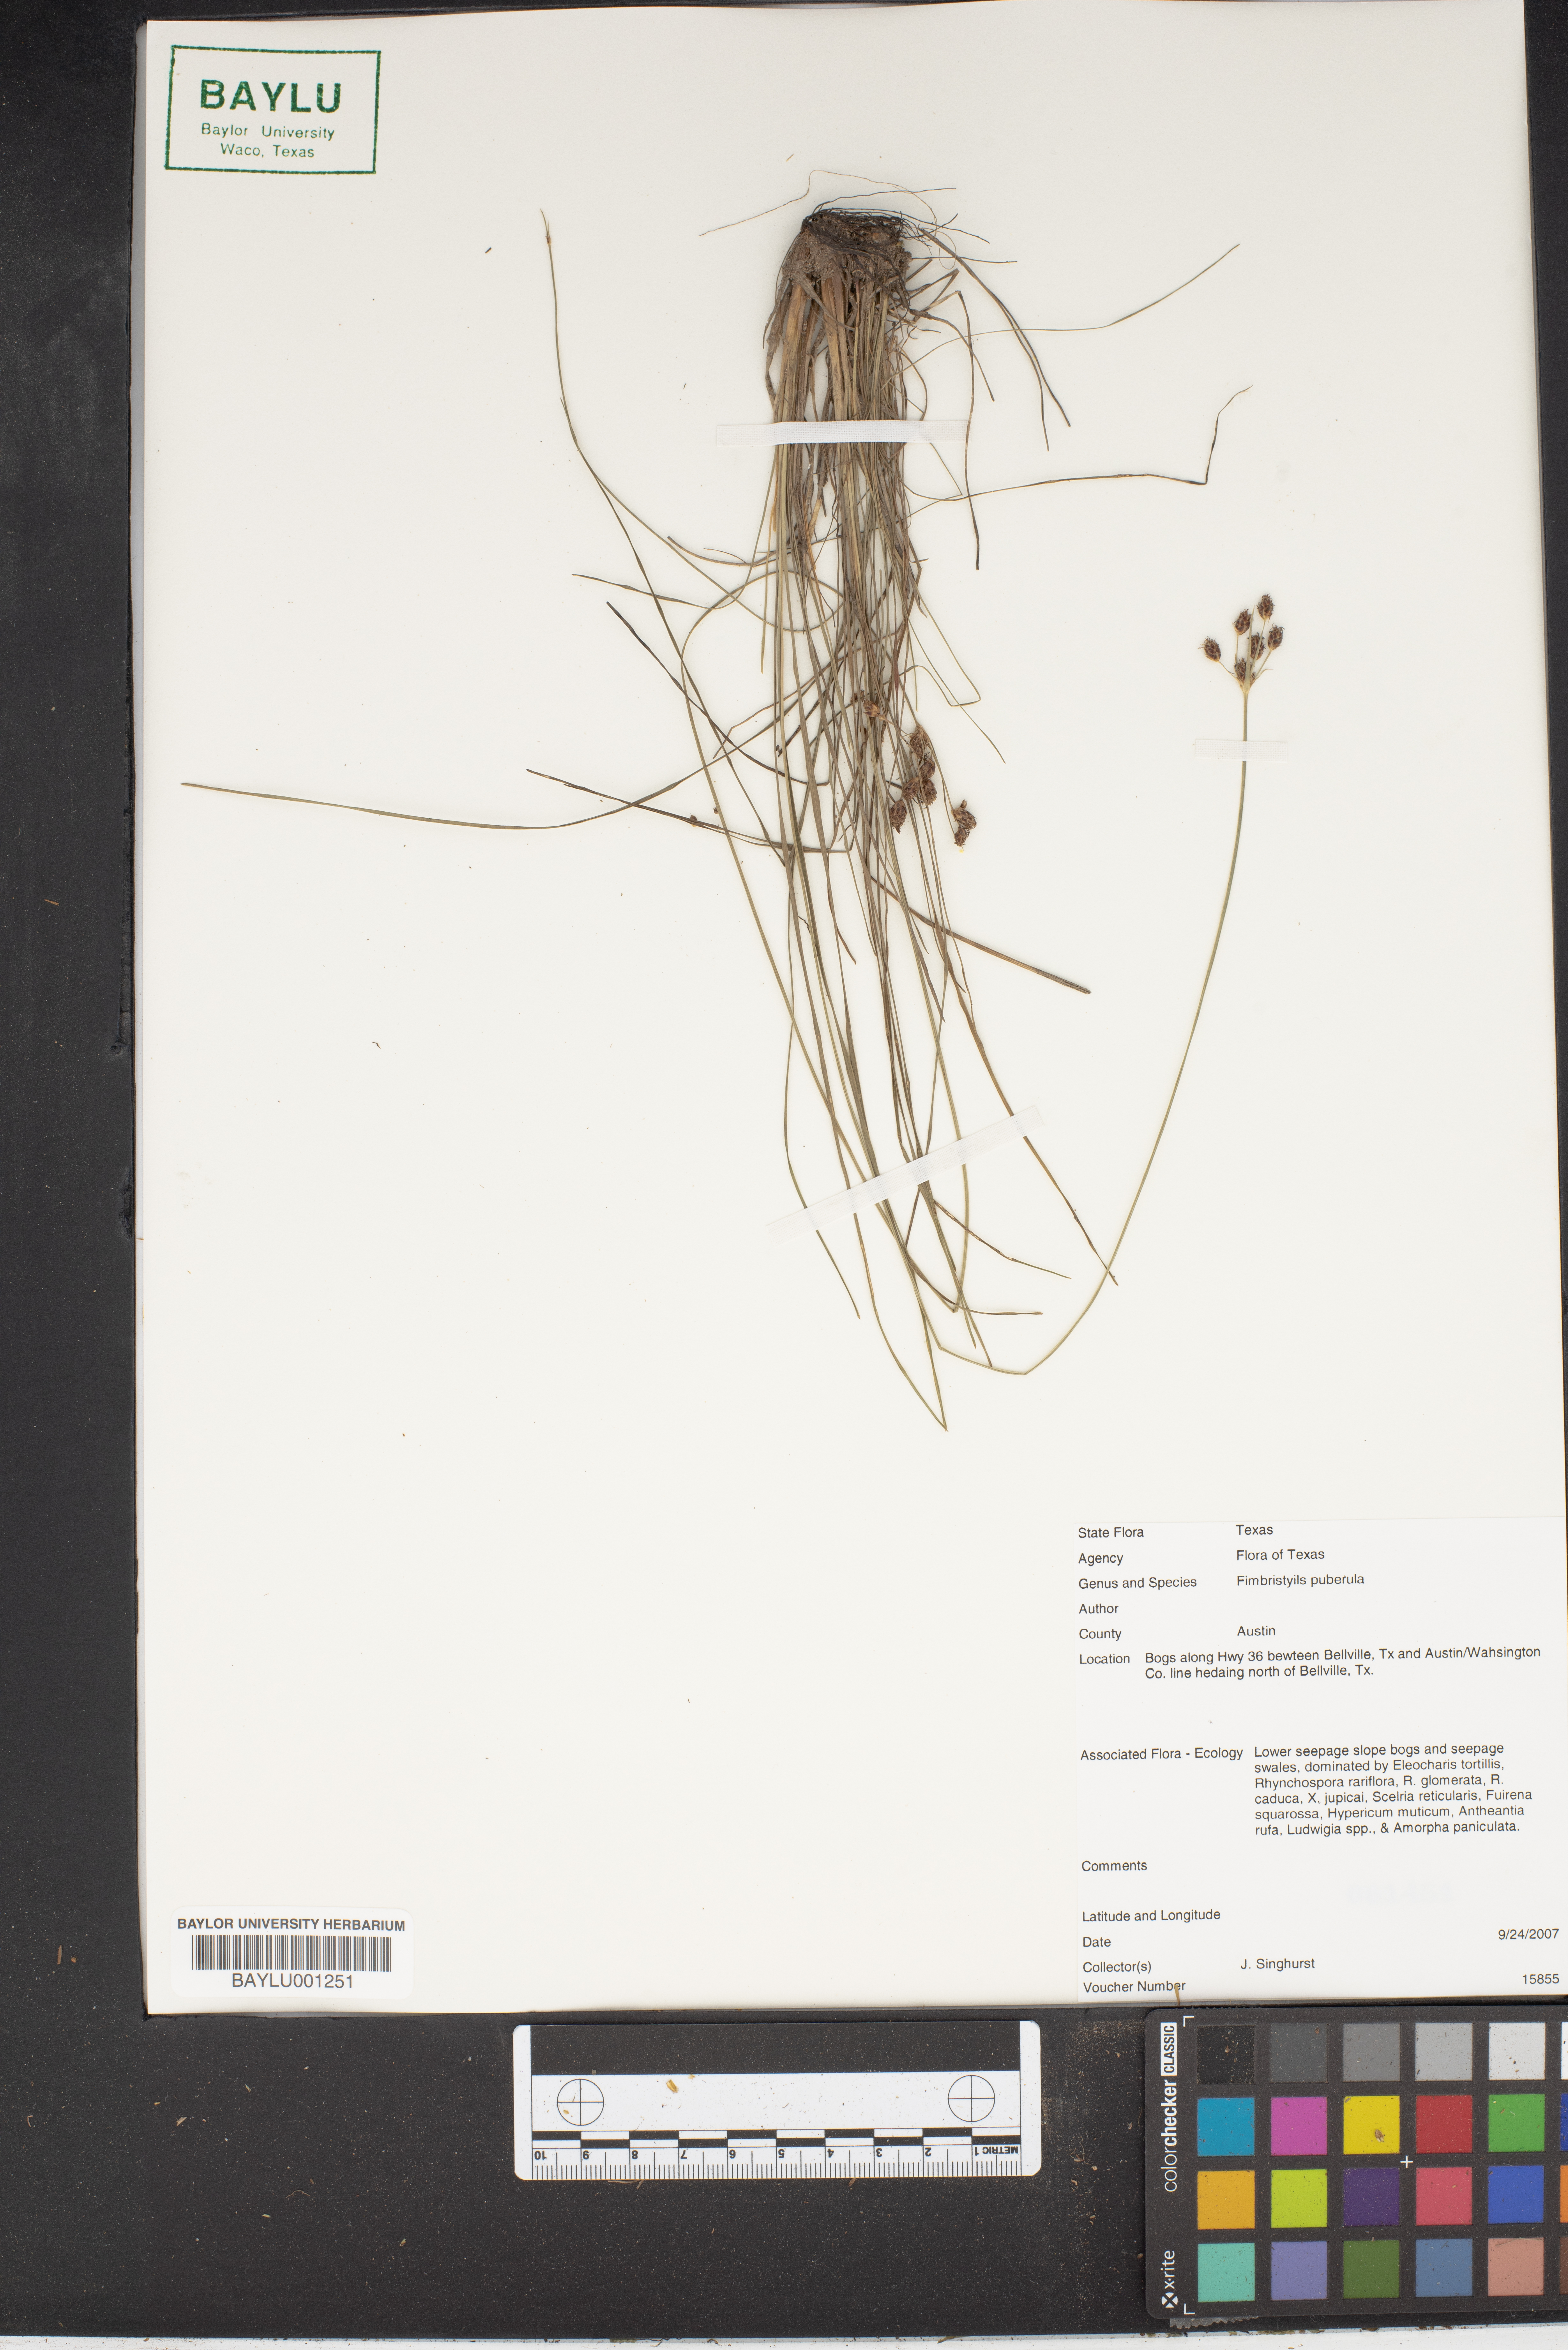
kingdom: Plantae
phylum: Tracheophyta
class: Liliopsida
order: Poales
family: Cyperaceae
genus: Fimbristylis
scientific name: Fimbristylis puberula
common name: Hairy fimbristylis
